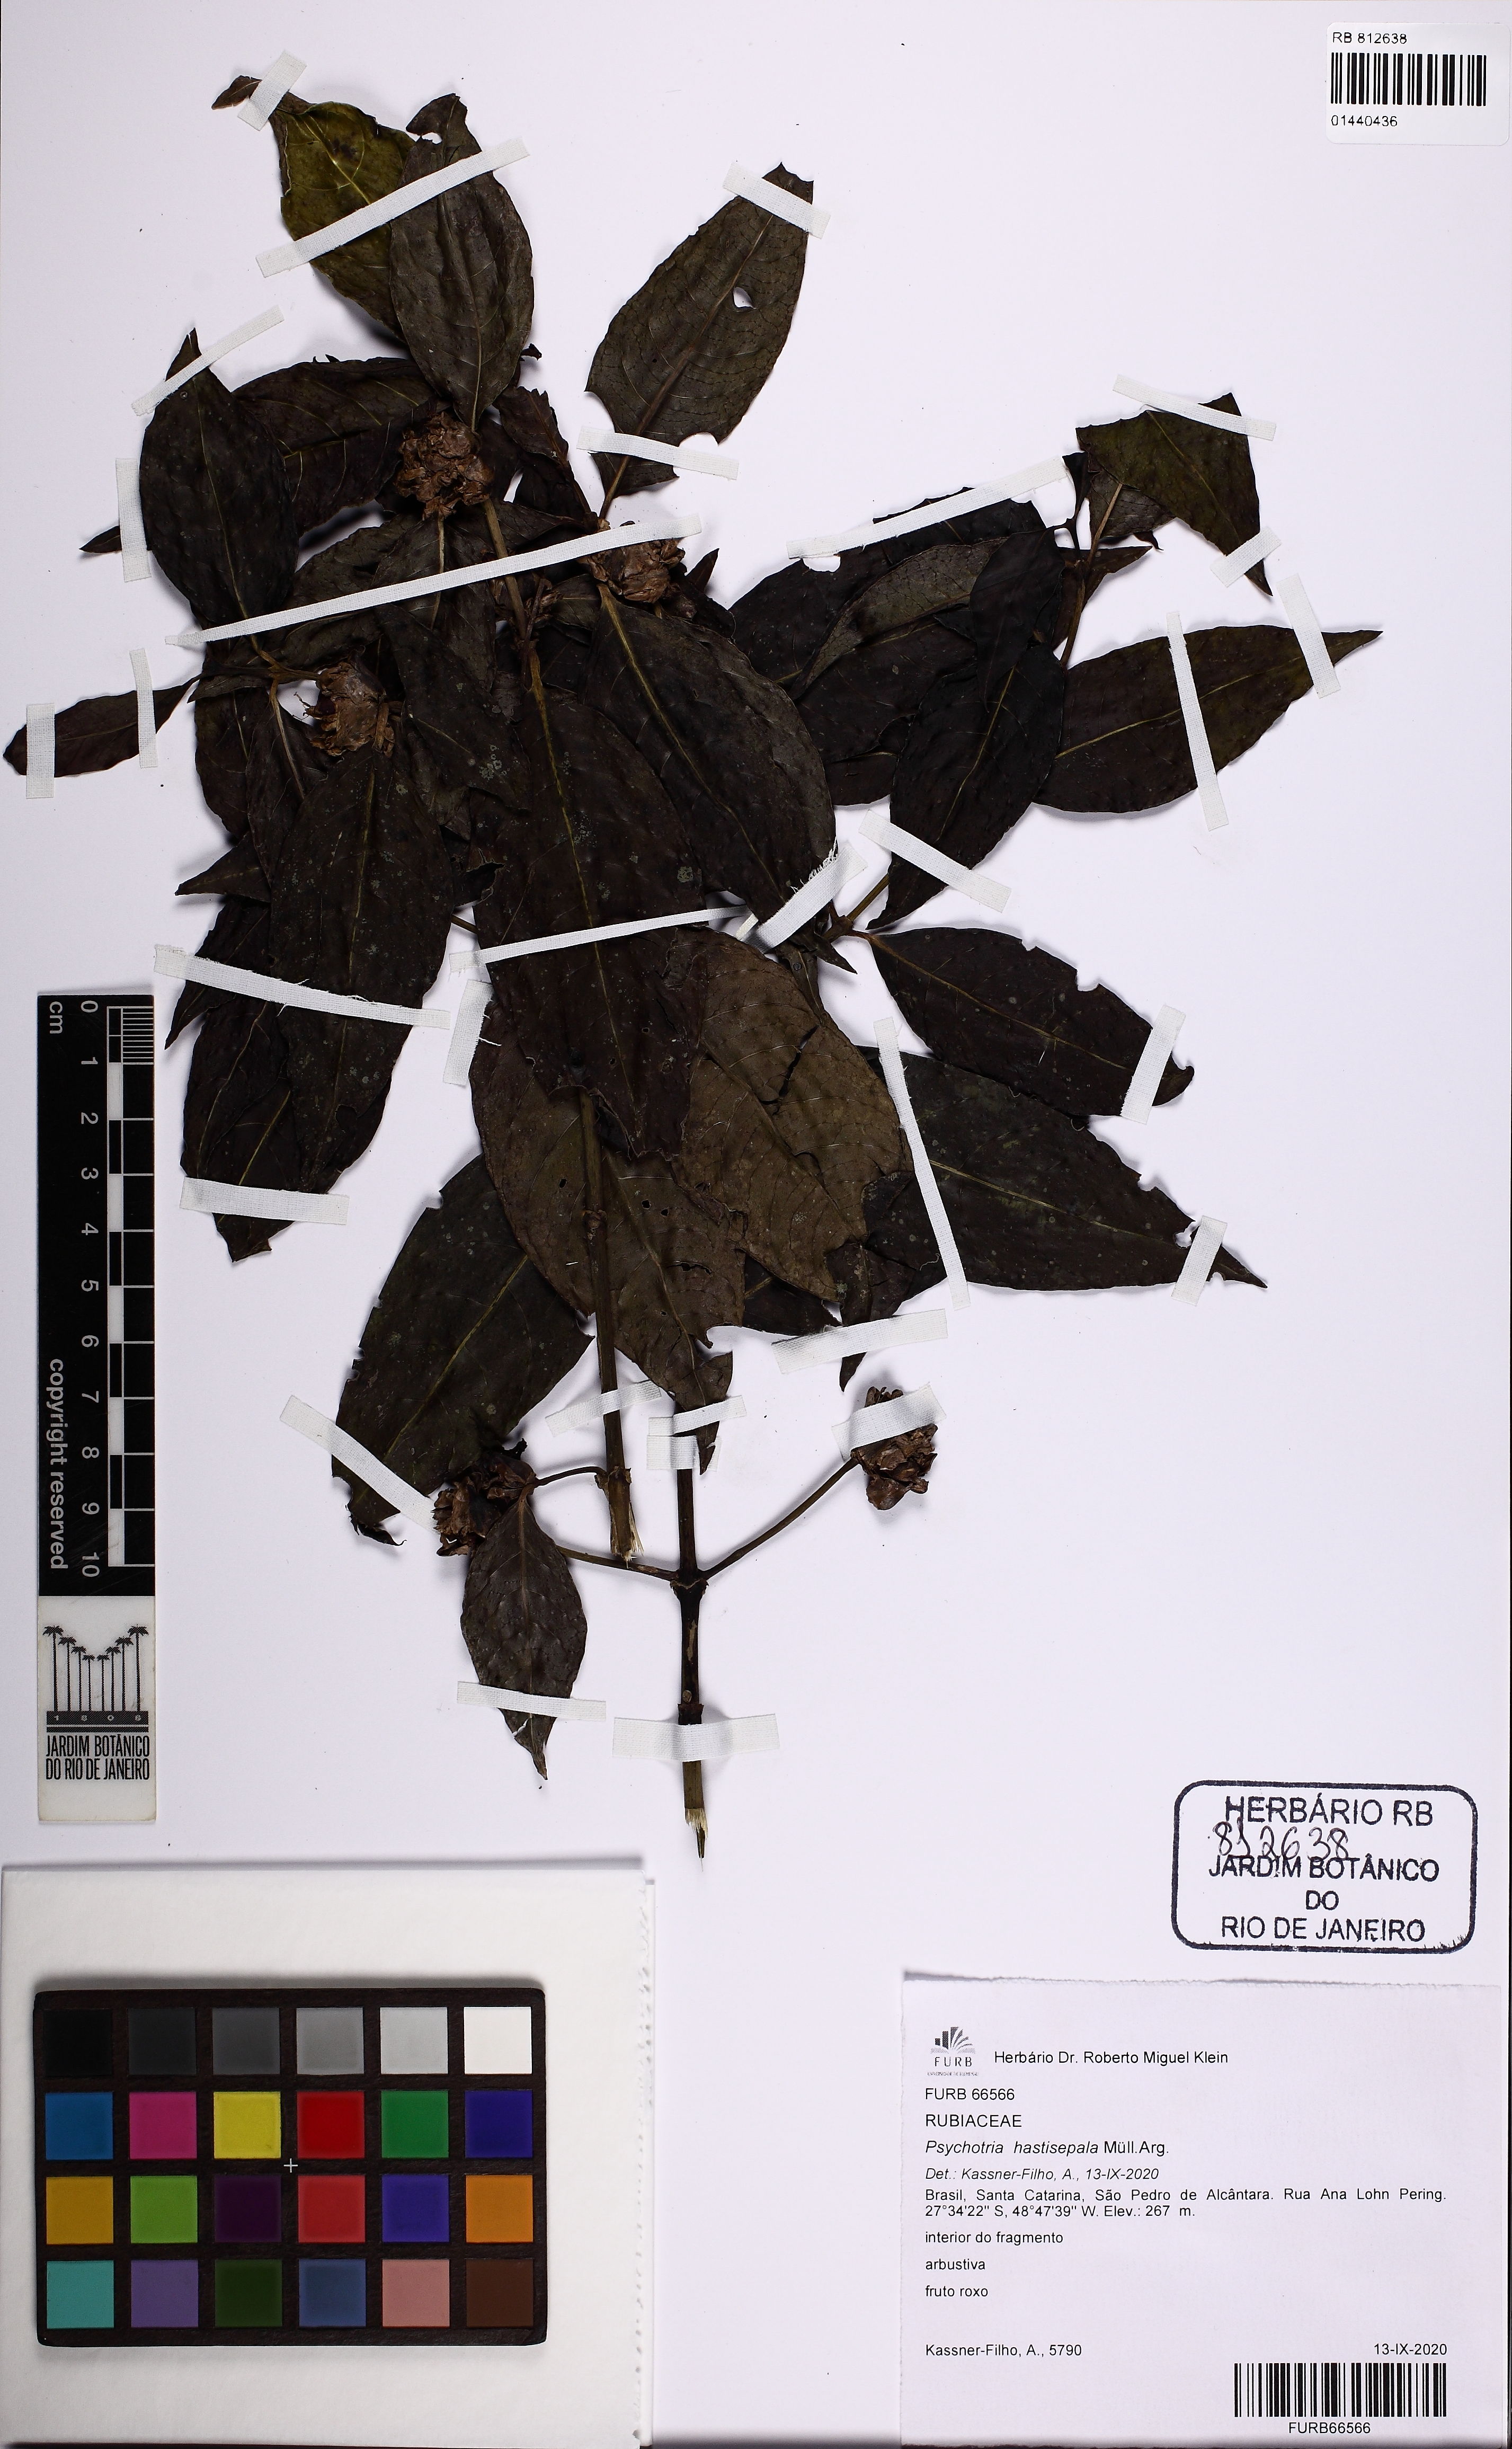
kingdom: Plantae
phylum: Tracheophyta
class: Magnoliopsida
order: Gentianales
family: Rubiaceae
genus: Psychotria
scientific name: Psychotria hastisepala
